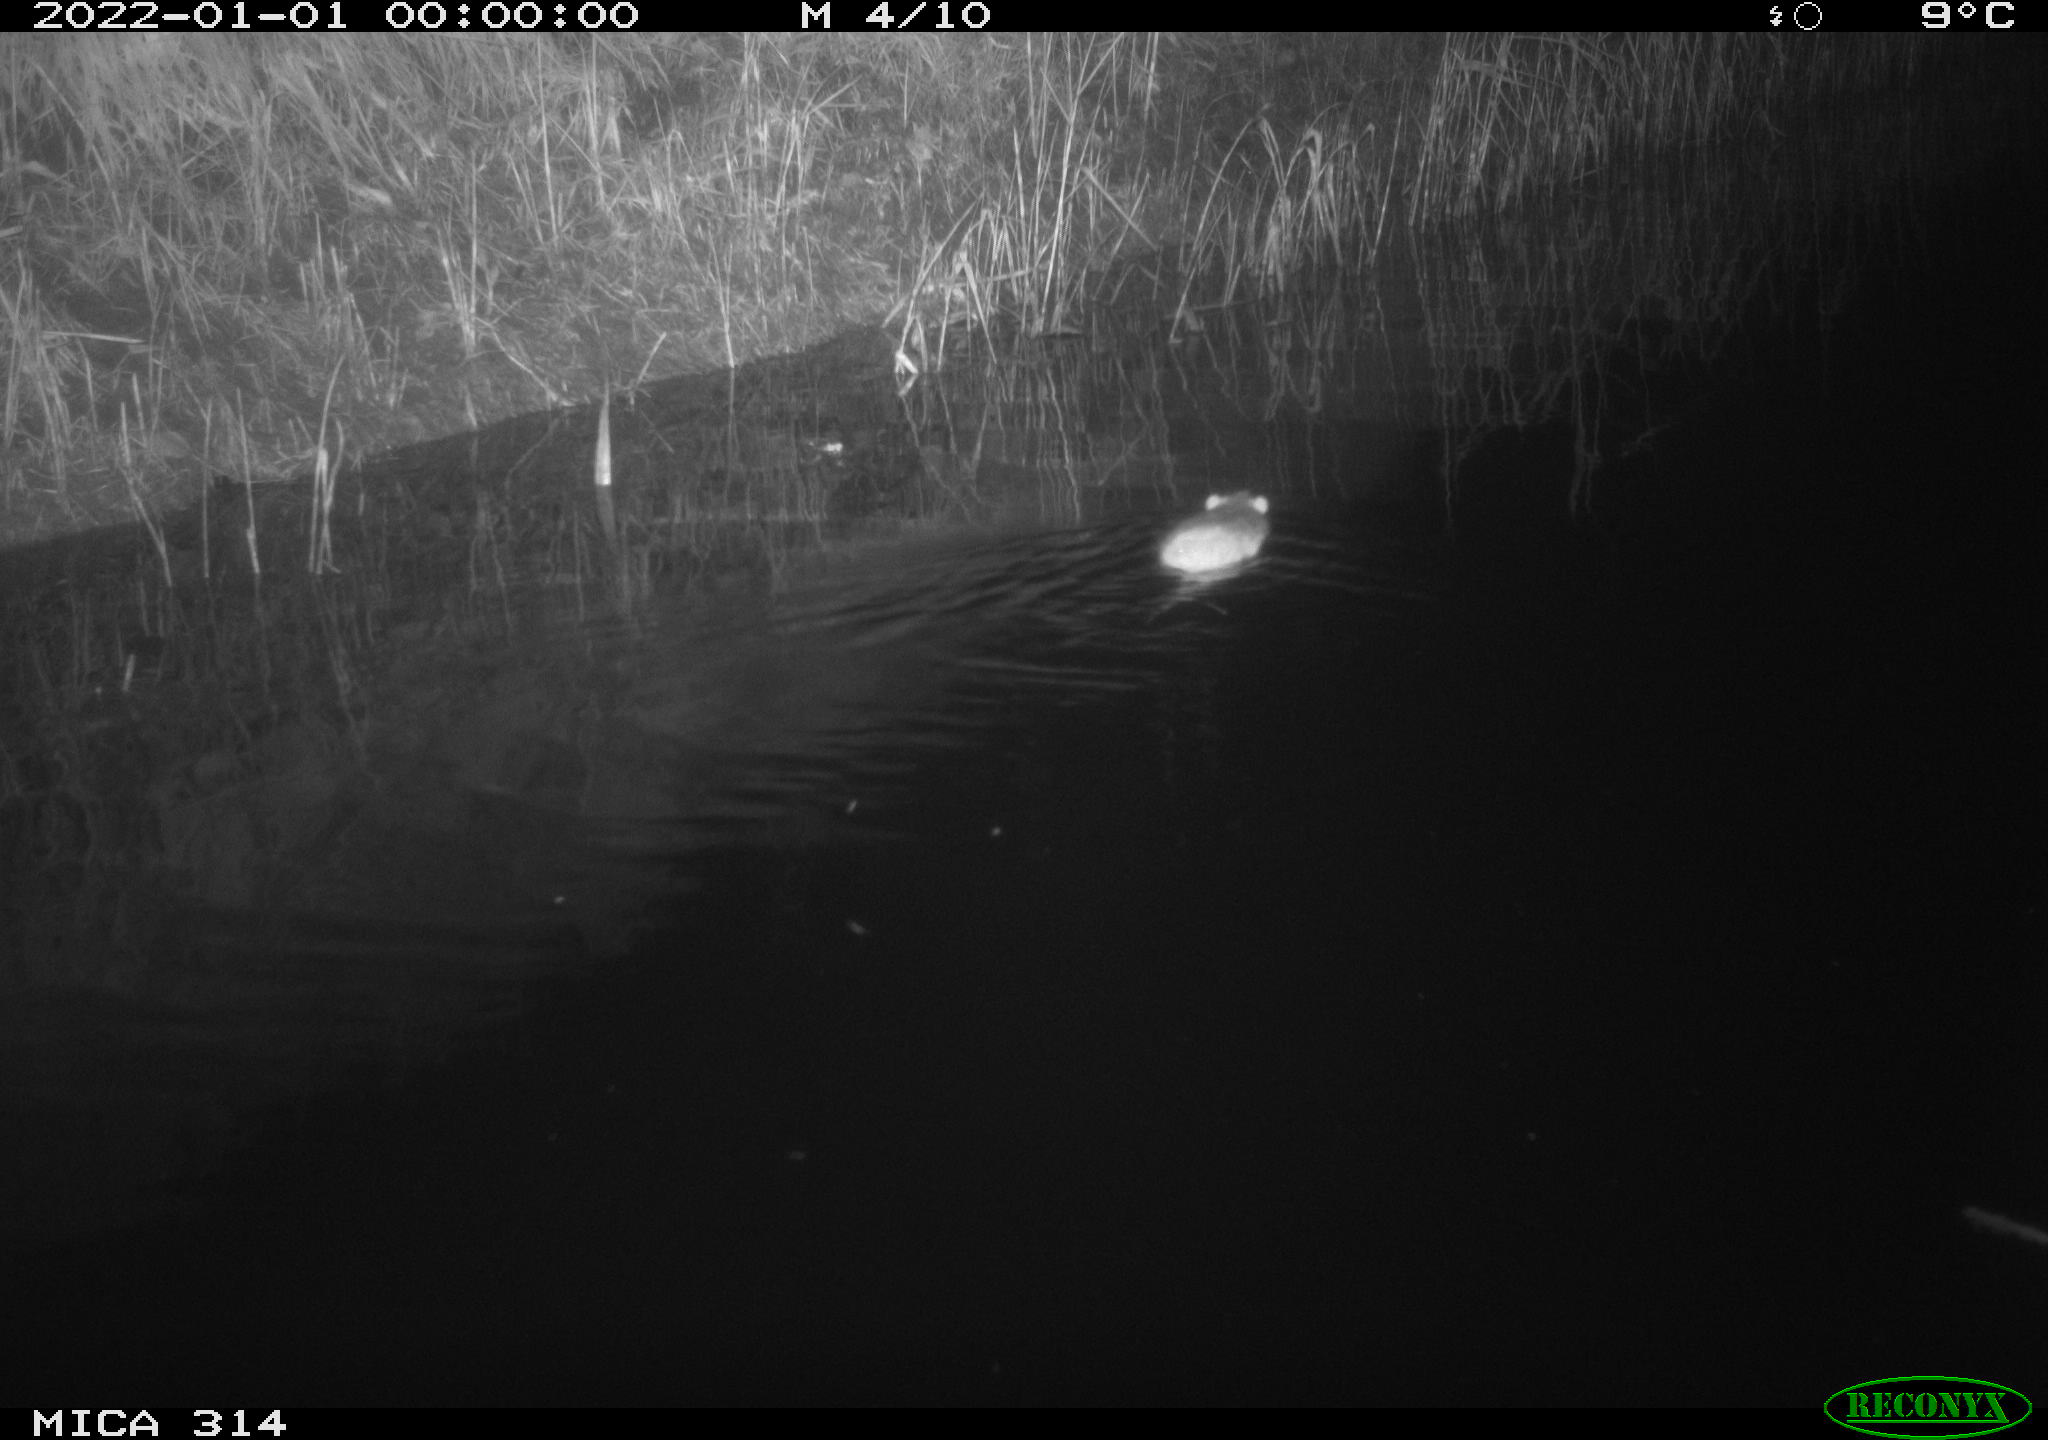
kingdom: Animalia
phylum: Chordata
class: Mammalia
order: Rodentia
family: Muridae
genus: Rattus
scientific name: Rattus norvegicus
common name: Brown rat
